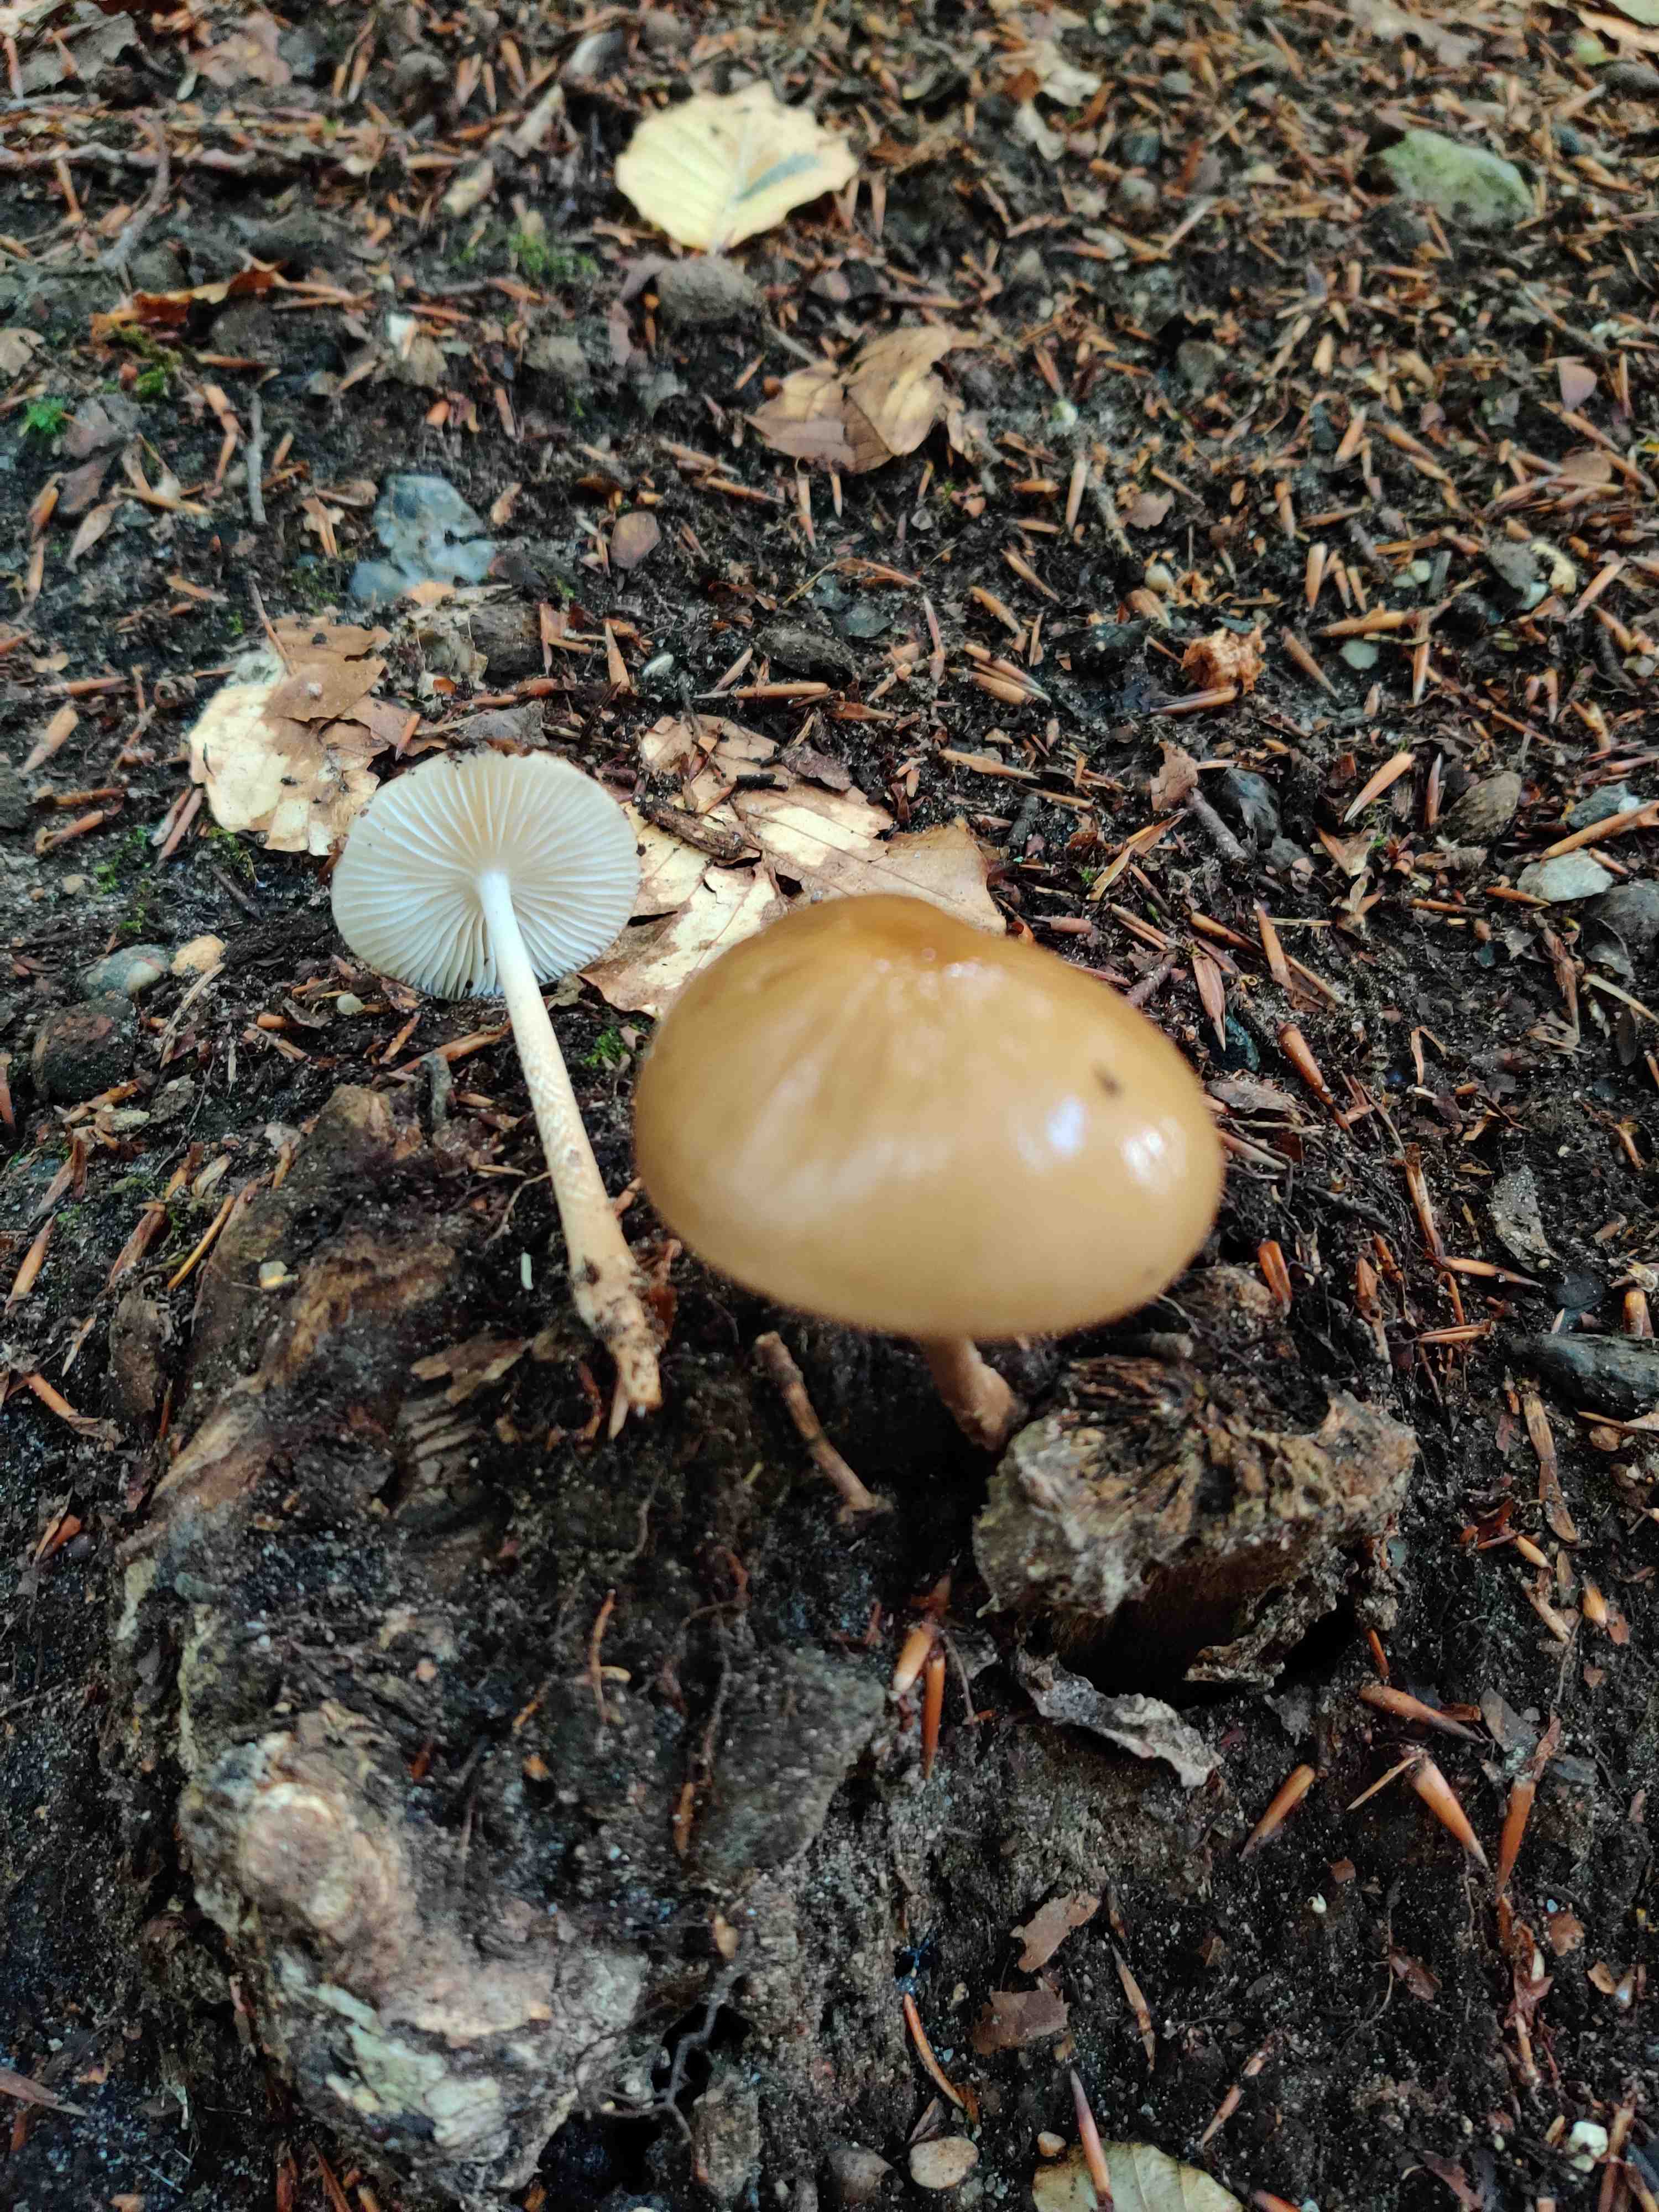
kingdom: Fungi
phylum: Basidiomycota
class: Agaricomycetes
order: Agaricales
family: Physalacriaceae
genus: Hymenopellis
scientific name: Hymenopellis radicata
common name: almindelig pælerodshat
